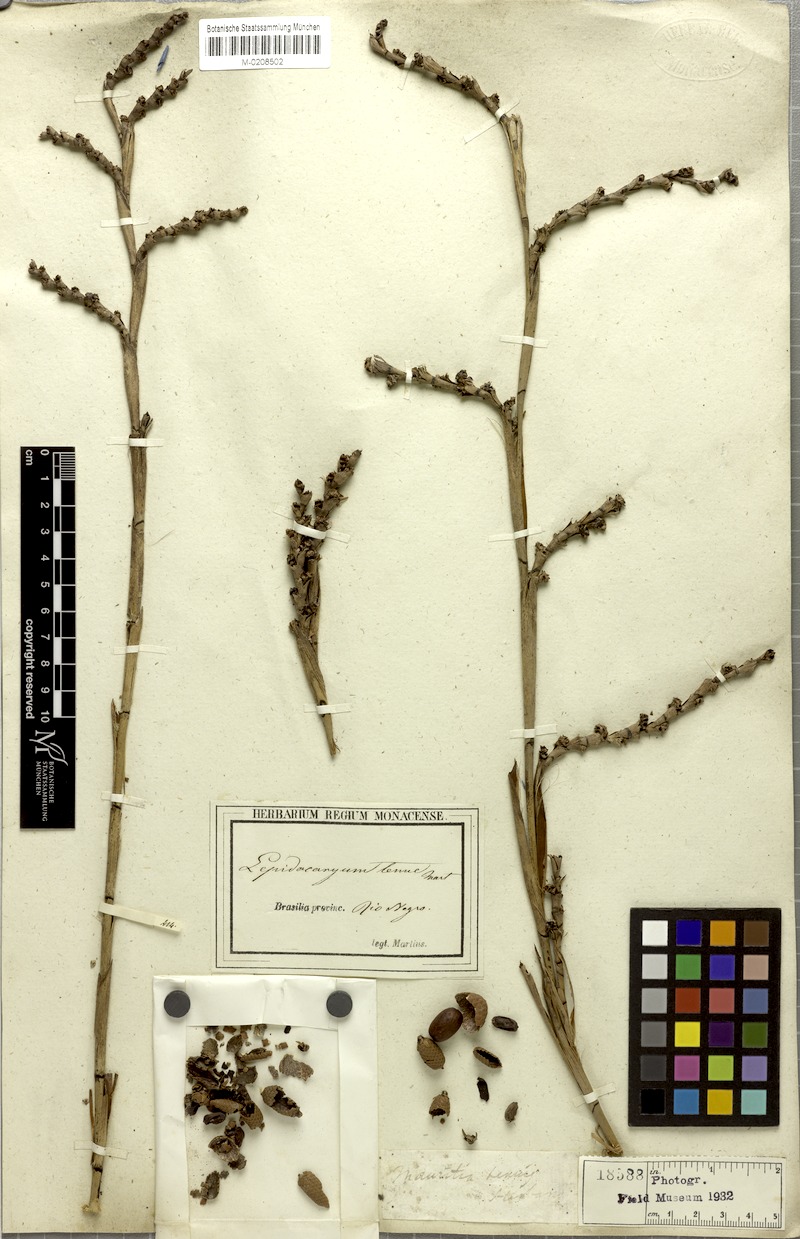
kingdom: Plantae
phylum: Tracheophyta
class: Liliopsida
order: Arecales
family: Arecaceae
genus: Lepidocaryum
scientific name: Lepidocaryum tenue
